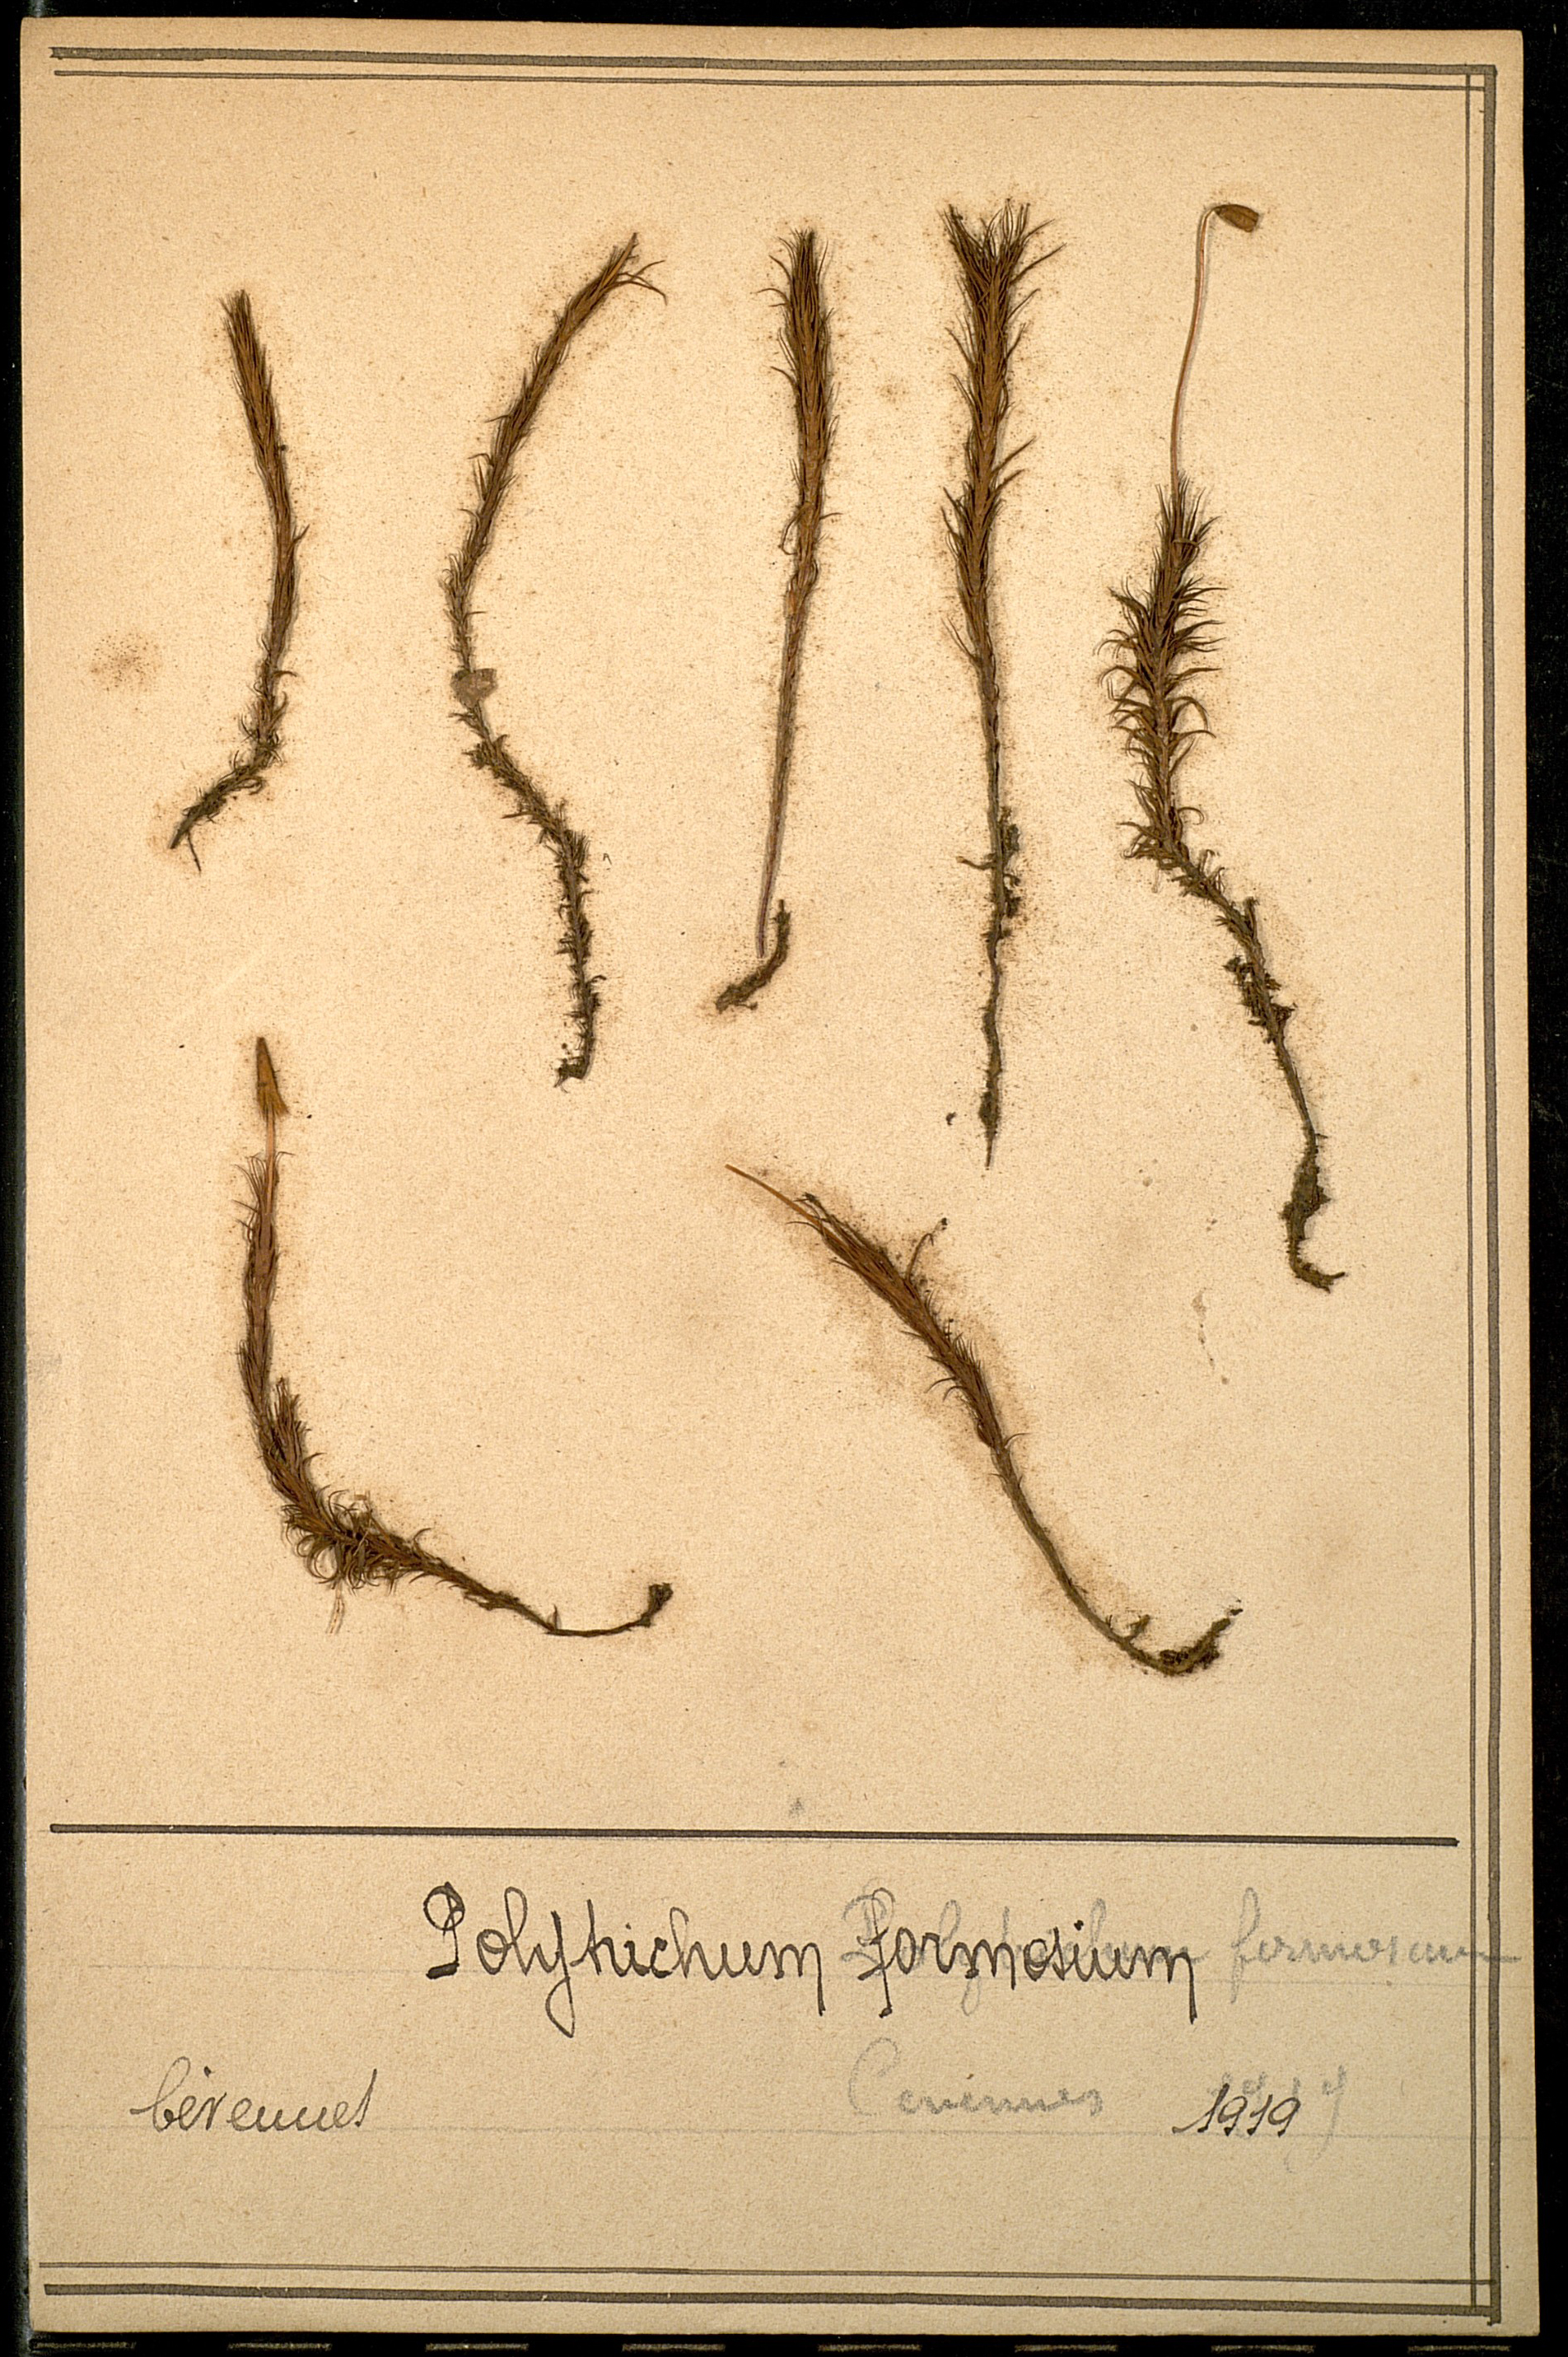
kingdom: Plantae
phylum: Bryophyta
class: Polytrichopsida
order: Polytrichales
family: Polytrichaceae
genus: Polytrichum
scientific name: Polytrichum formosum
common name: Bank haircap moss
